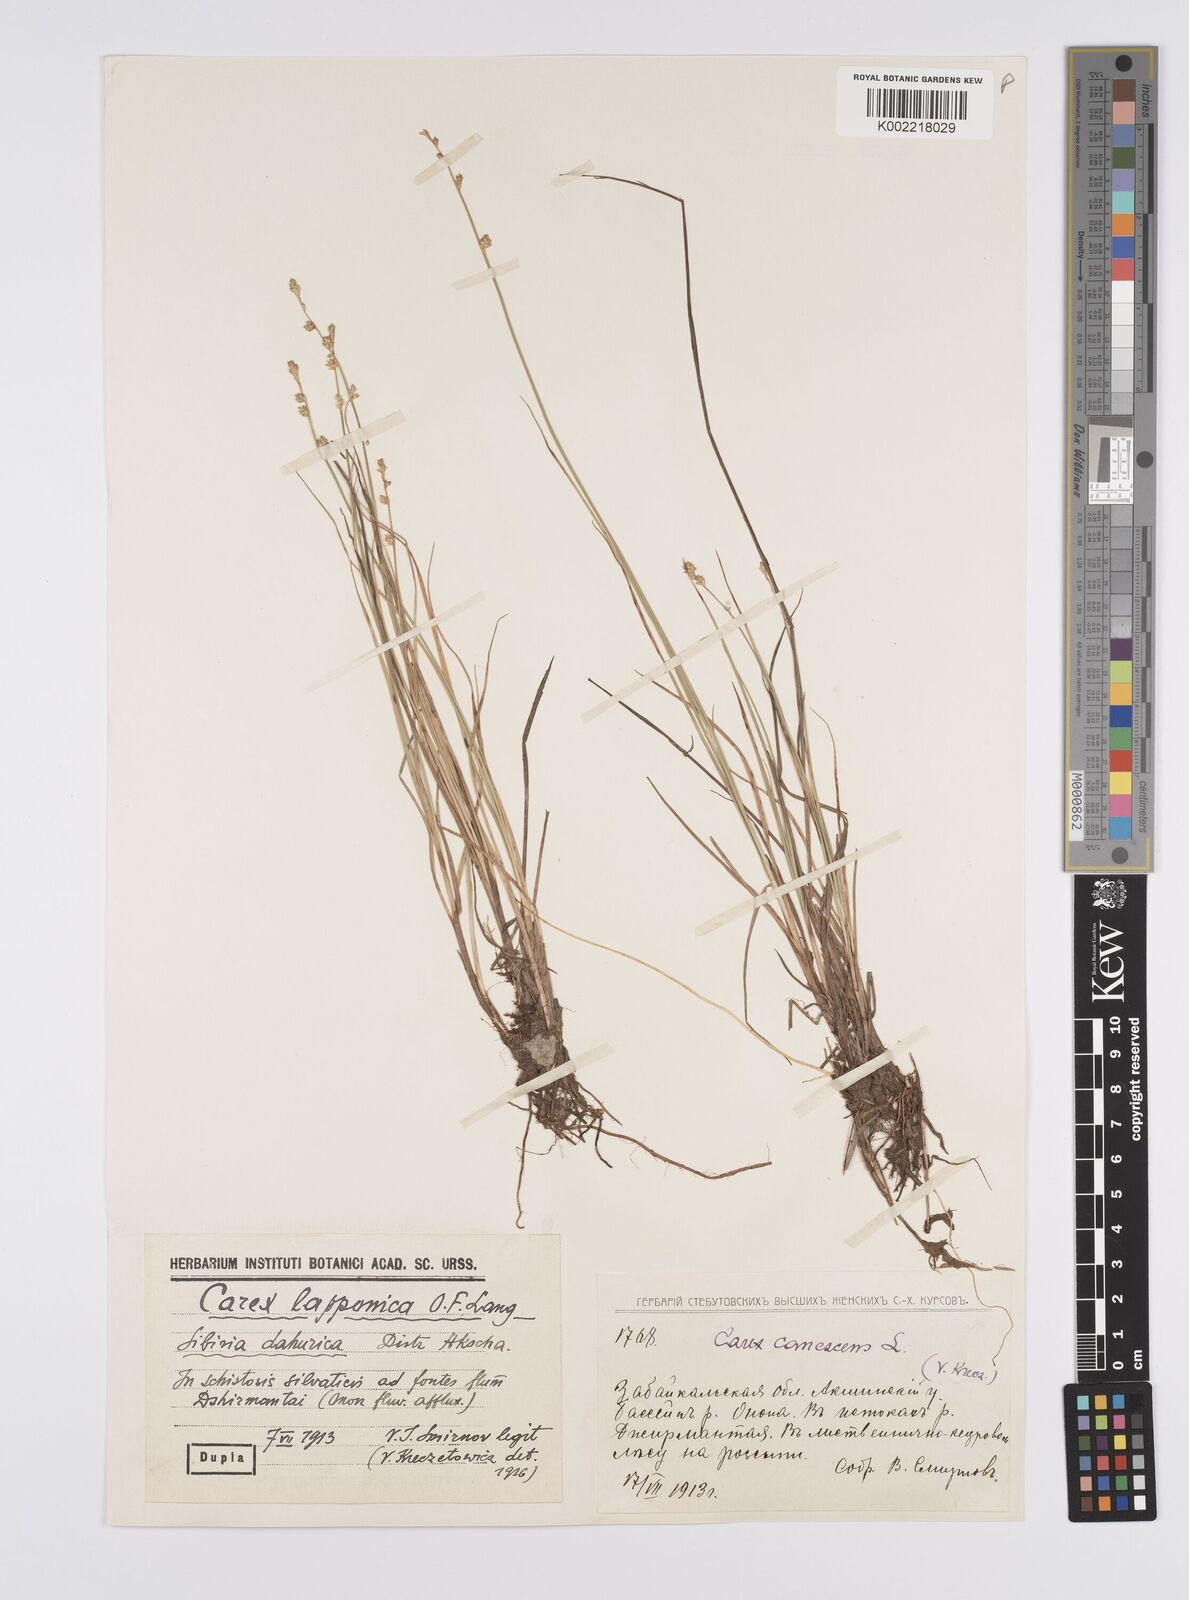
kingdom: Plantae
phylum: Tracheophyta
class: Liliopsida
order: Poales
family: Cyperaceae
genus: Carex
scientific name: Carex canescens
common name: White sedge
